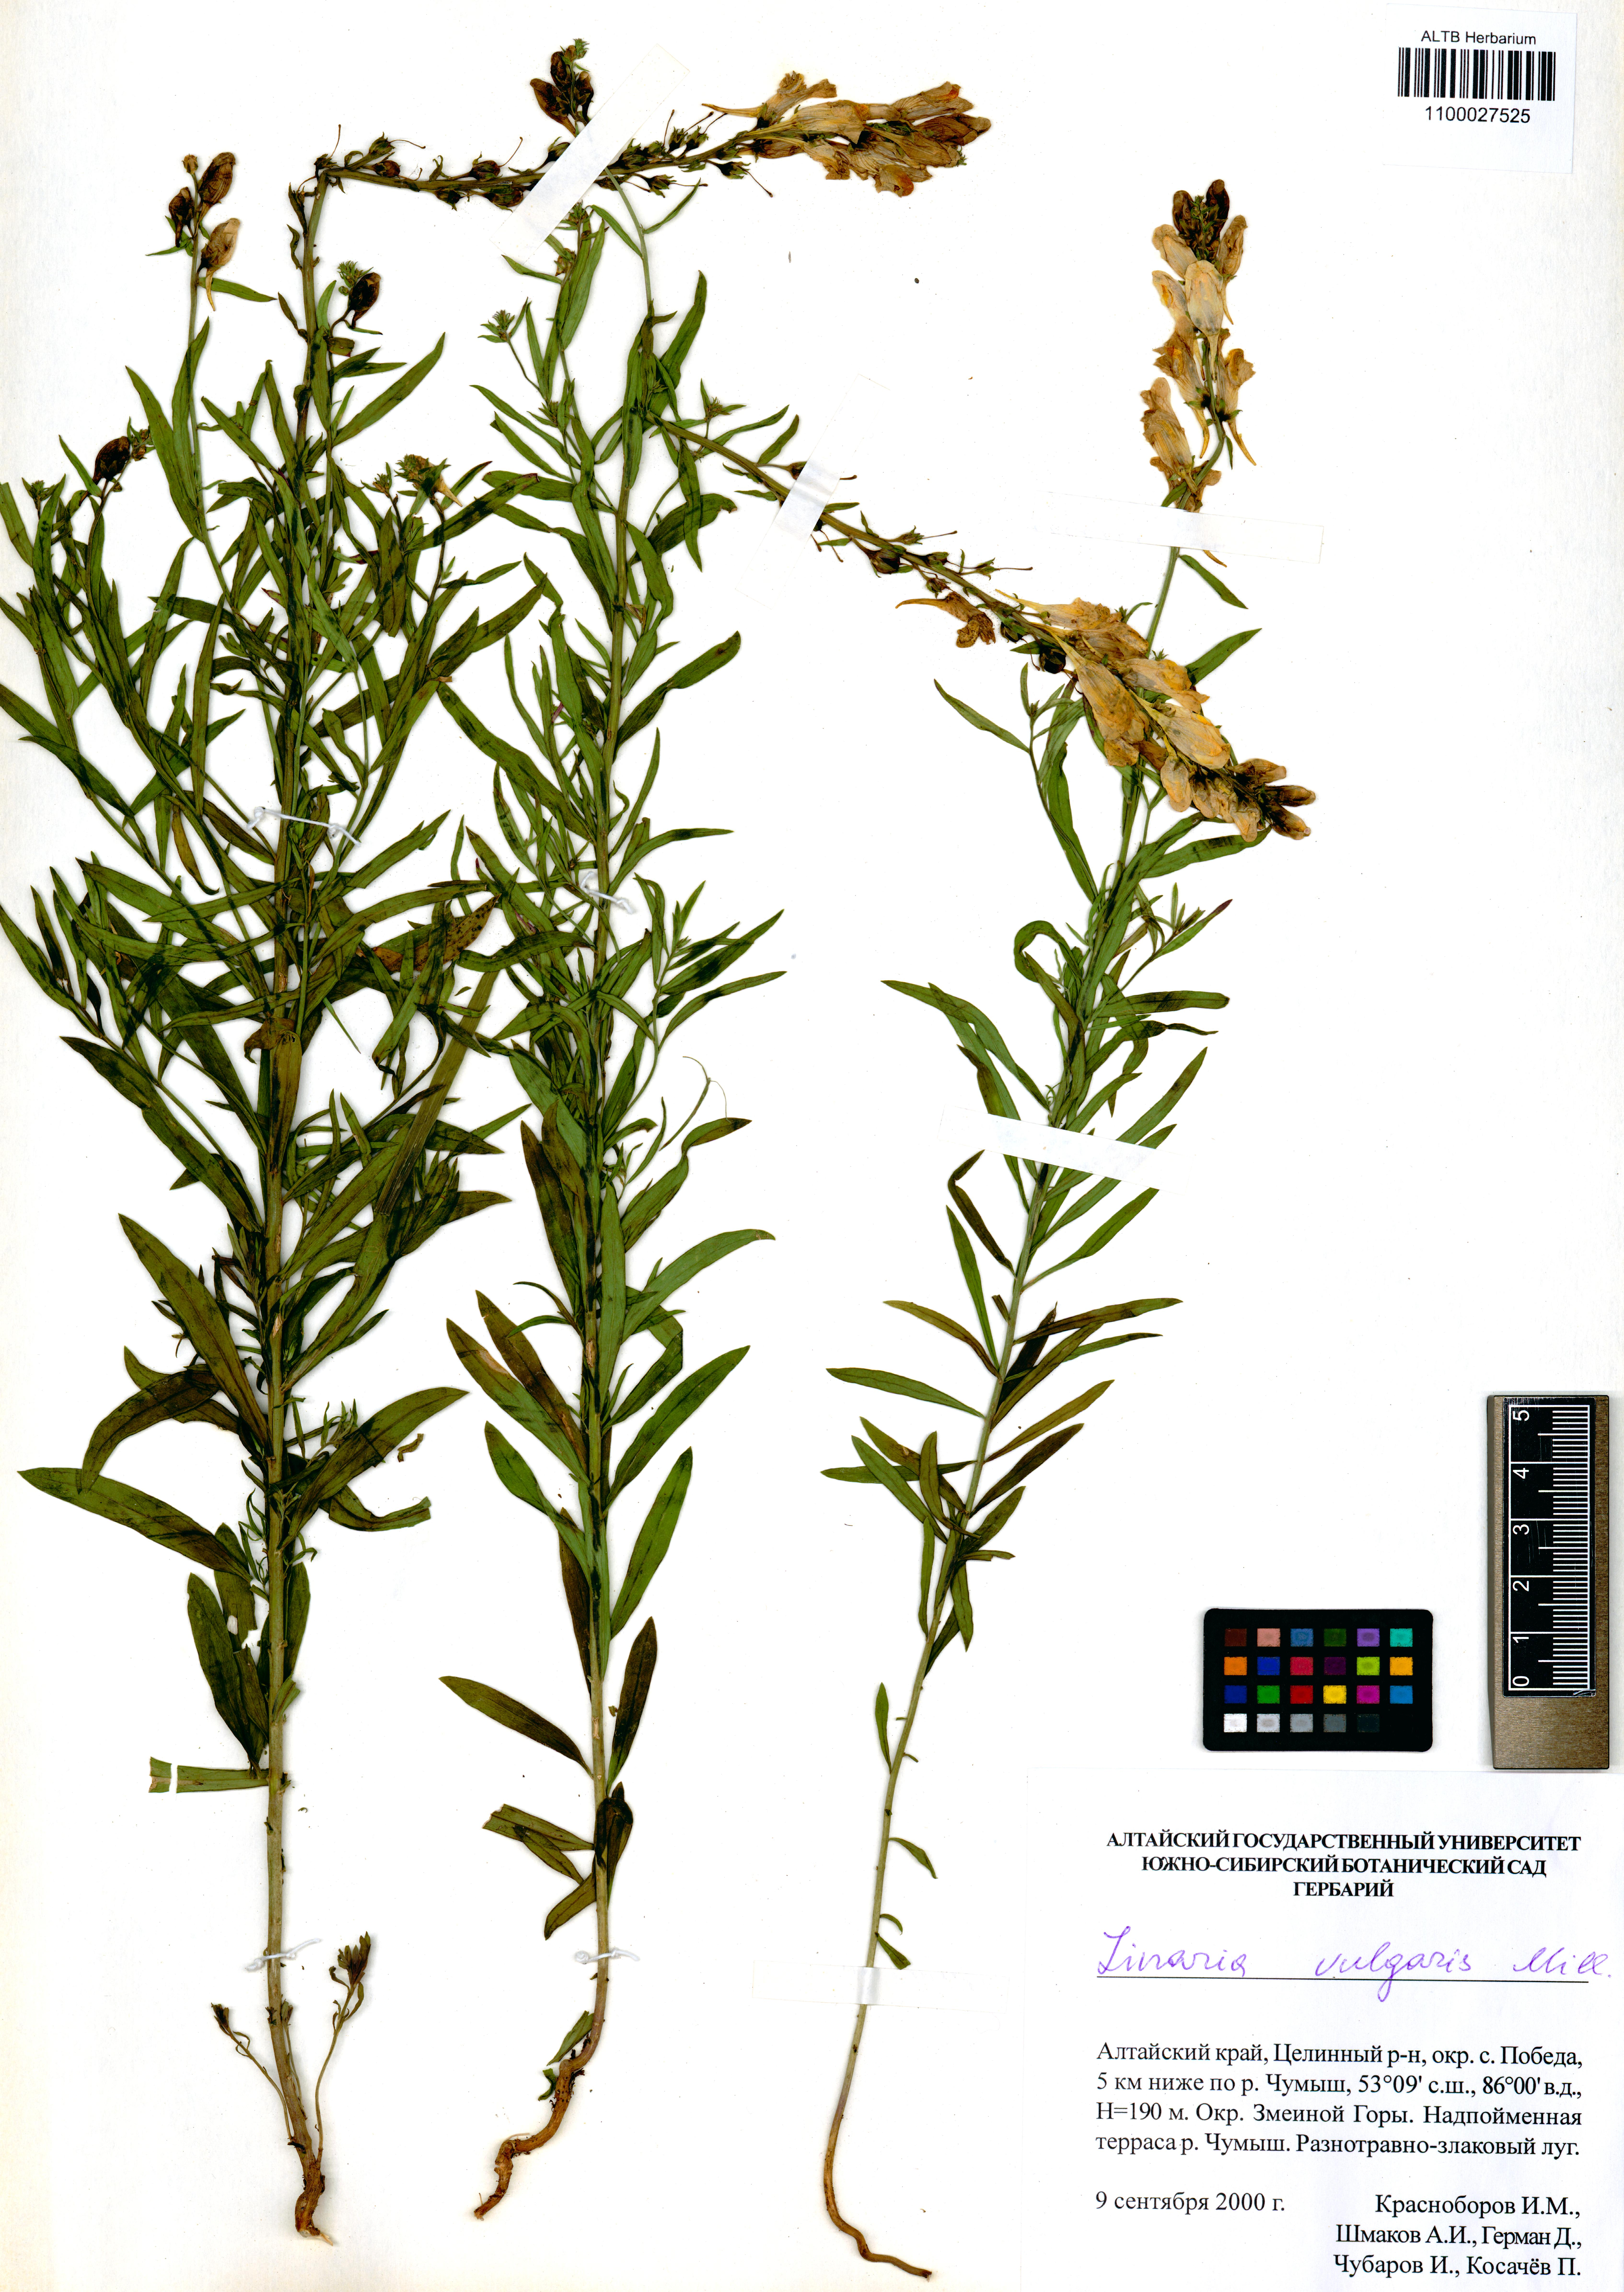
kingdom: Plantae
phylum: Tracheophyta
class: Magnoliopsida
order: Lamiales
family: Plantaginaceae
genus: Linaria
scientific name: Linaria vulgaris
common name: Butter and eggs
